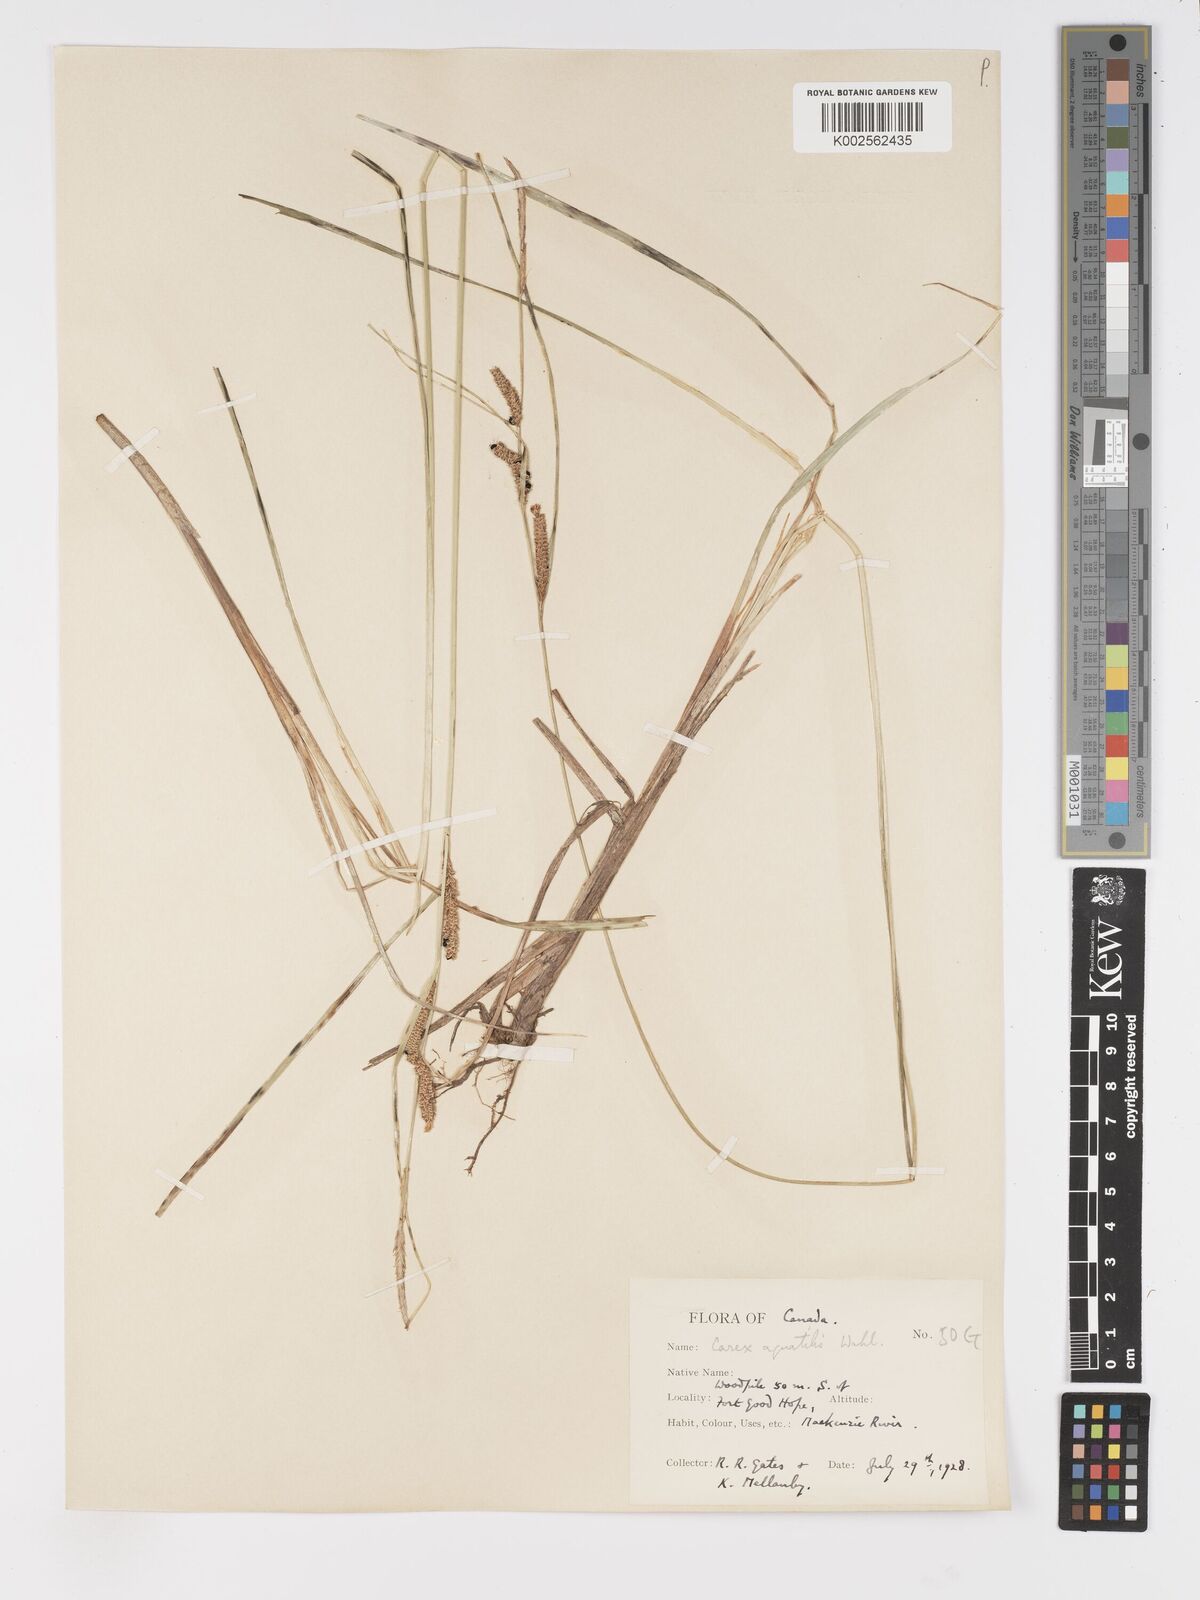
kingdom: Plantae
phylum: Tracheophyta
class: Liliopsida
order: Poales
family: Cyperaceae
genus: Carex
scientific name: Carex
